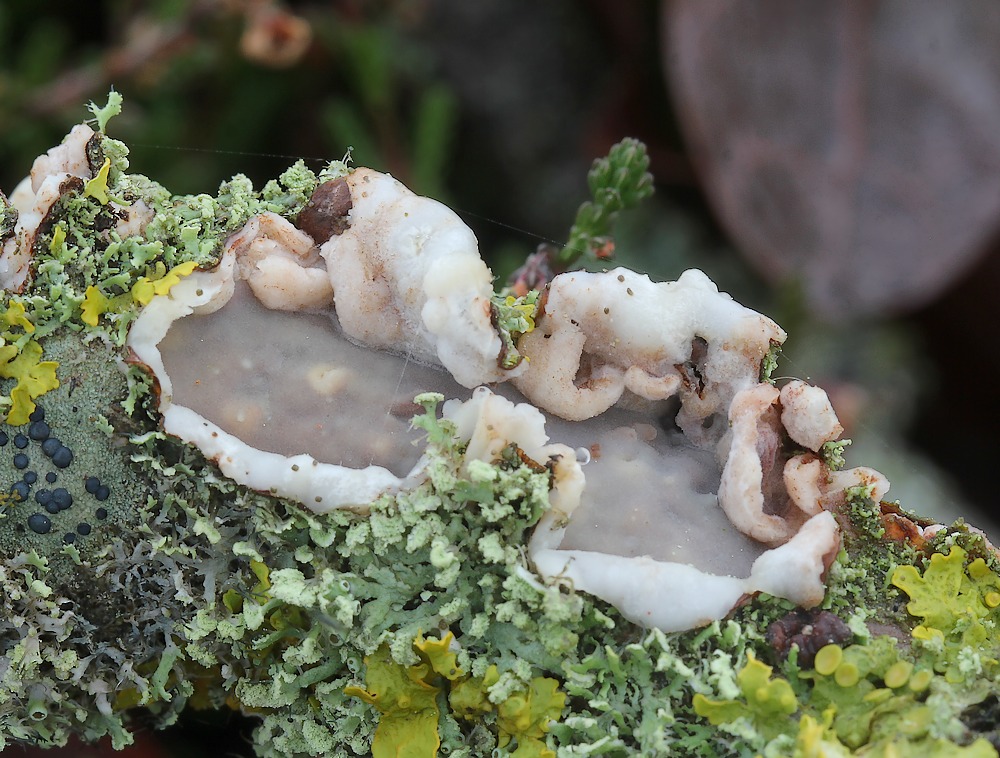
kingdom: Fungi
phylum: Basidiomycota
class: Agaricomycetes
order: Corticiales
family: Vuilleminiaceae
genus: Vuilleminia
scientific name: Vuilleminia comedens
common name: almindelig barksprænger
